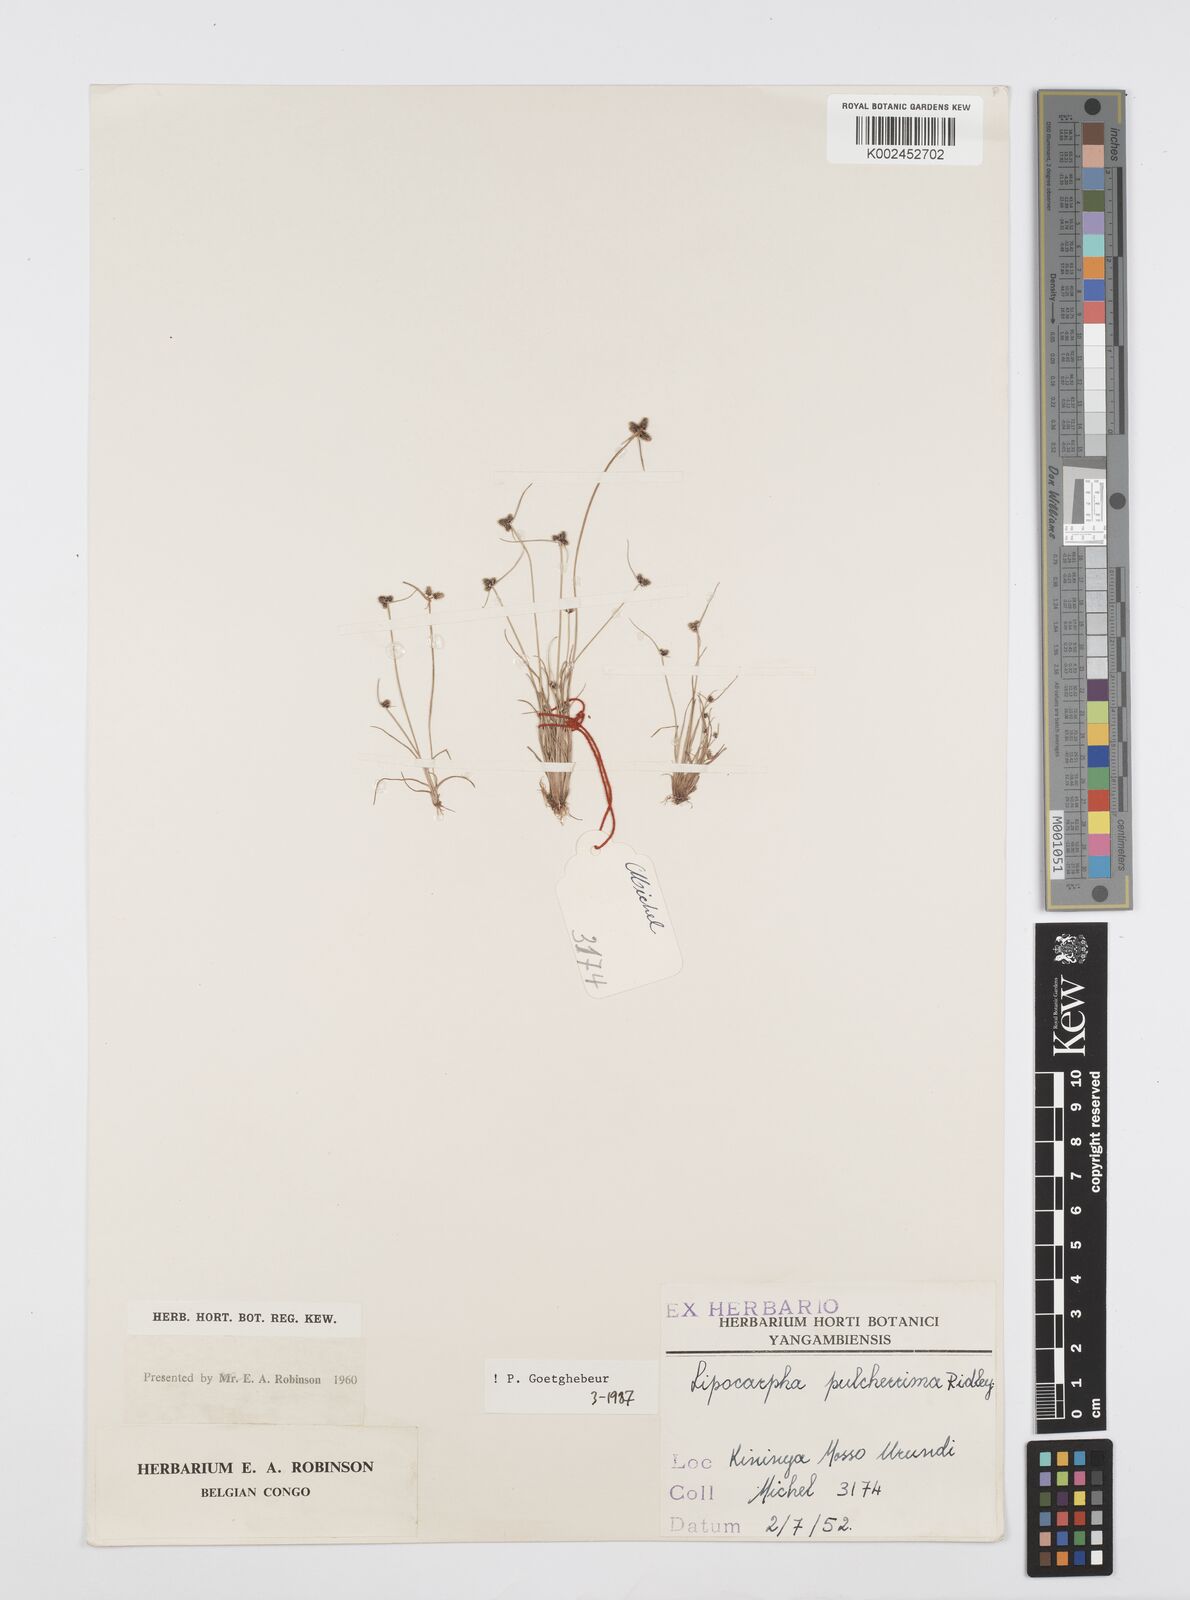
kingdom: Plantae
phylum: Tracheophyta
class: Liliopsida
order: Poales
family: Cyperaceae
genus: Cyperus
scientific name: Cyperus persquarrosus
